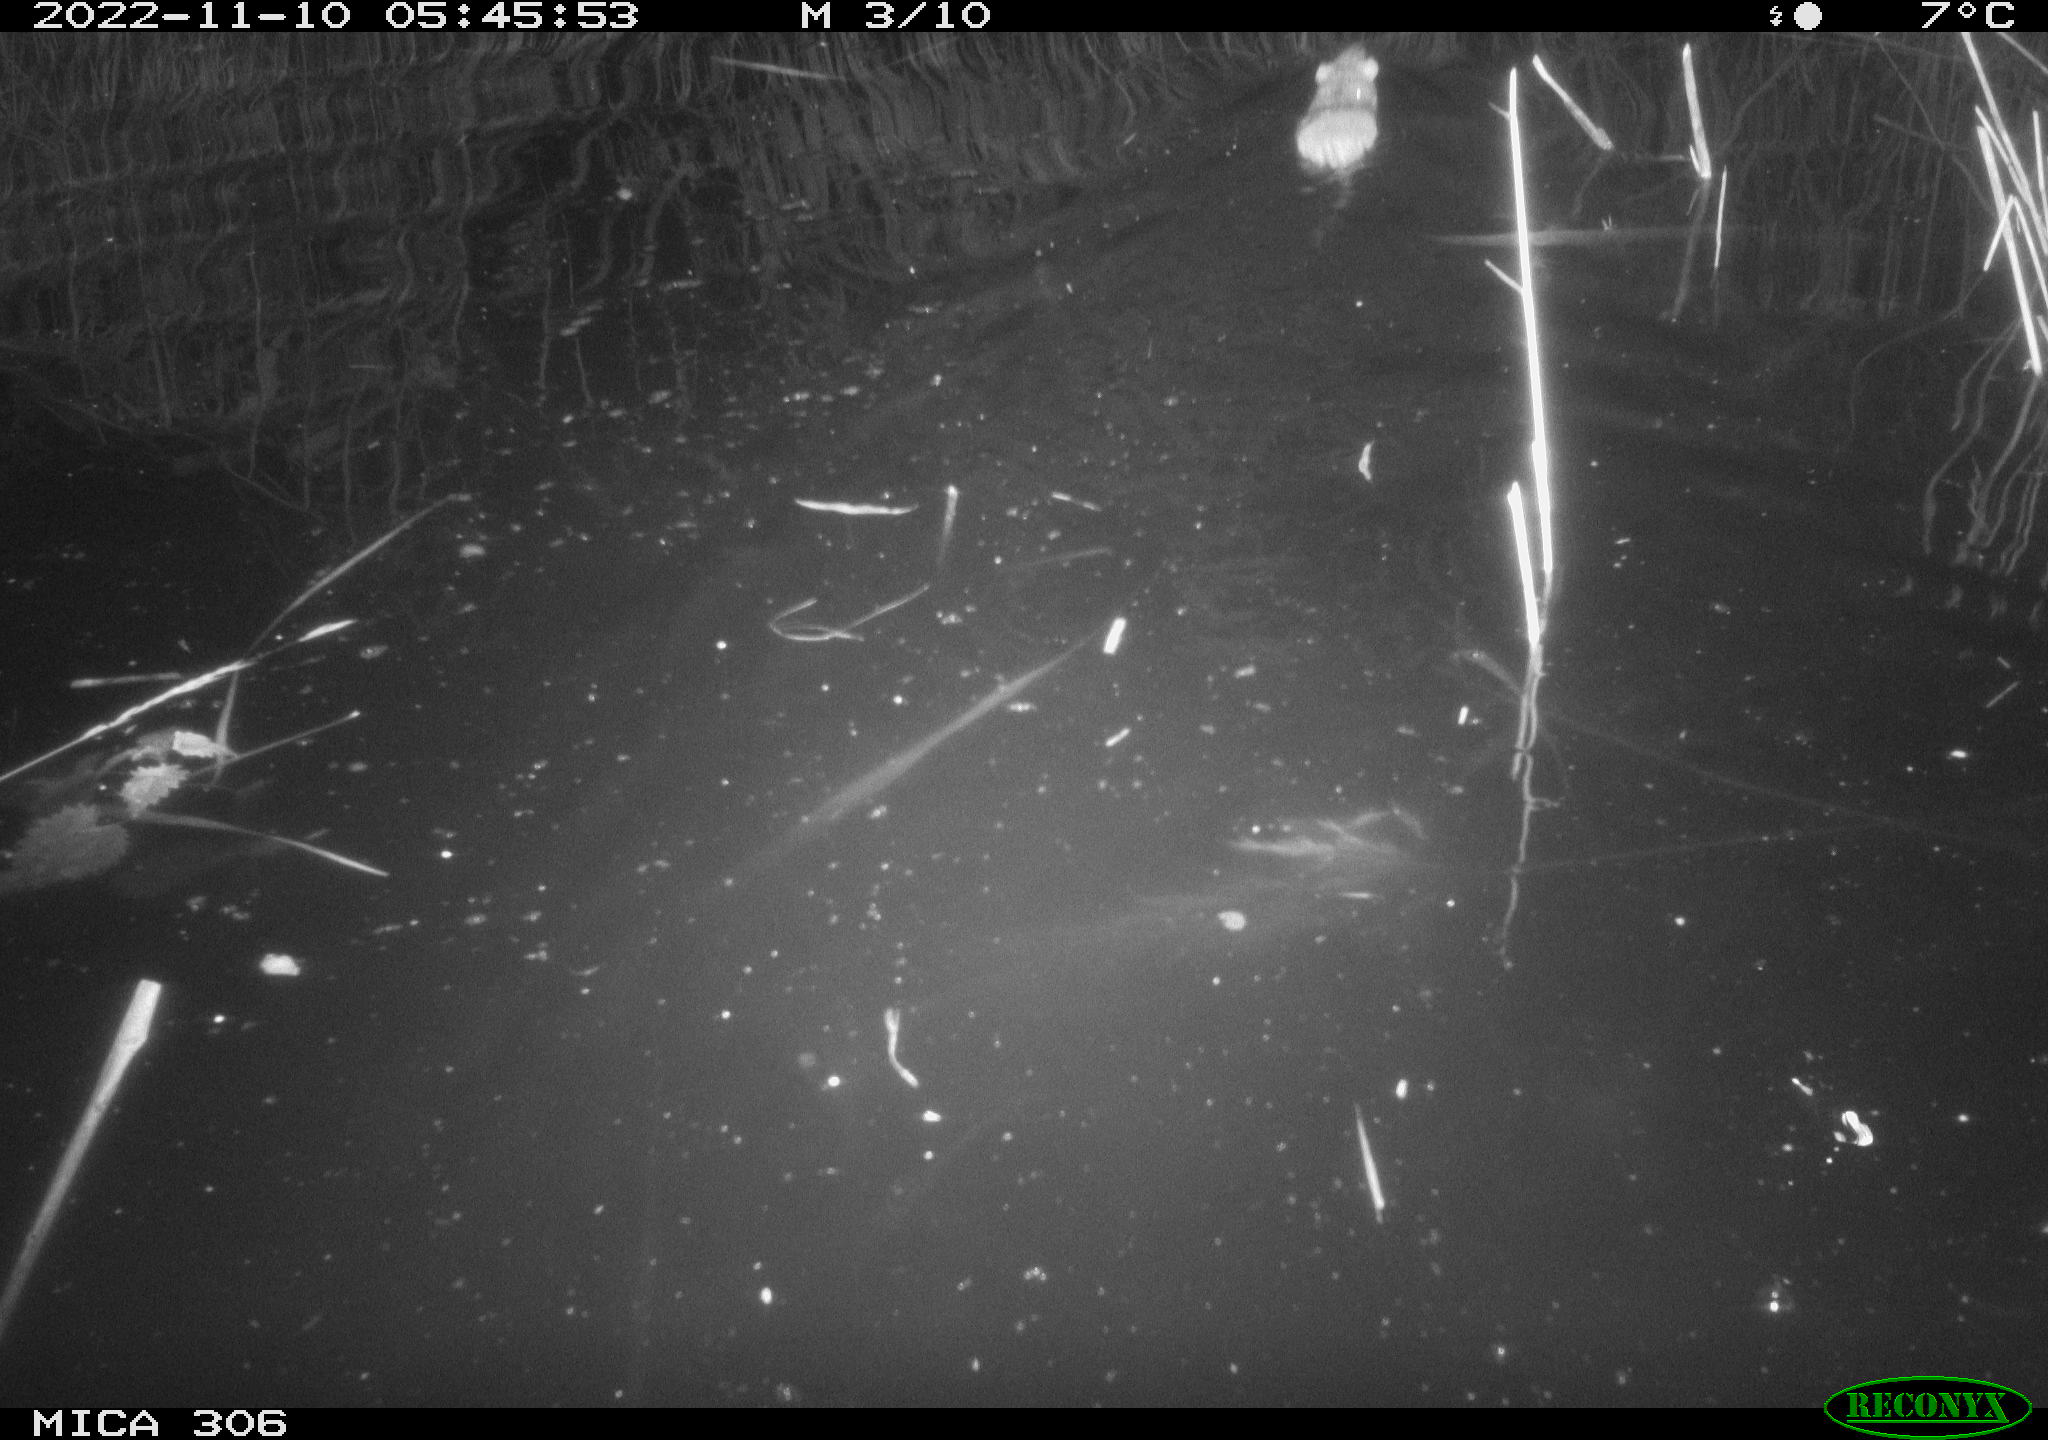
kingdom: Animalia
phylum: Chordata
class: Mammalia
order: Rodentia
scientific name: Rodentia
